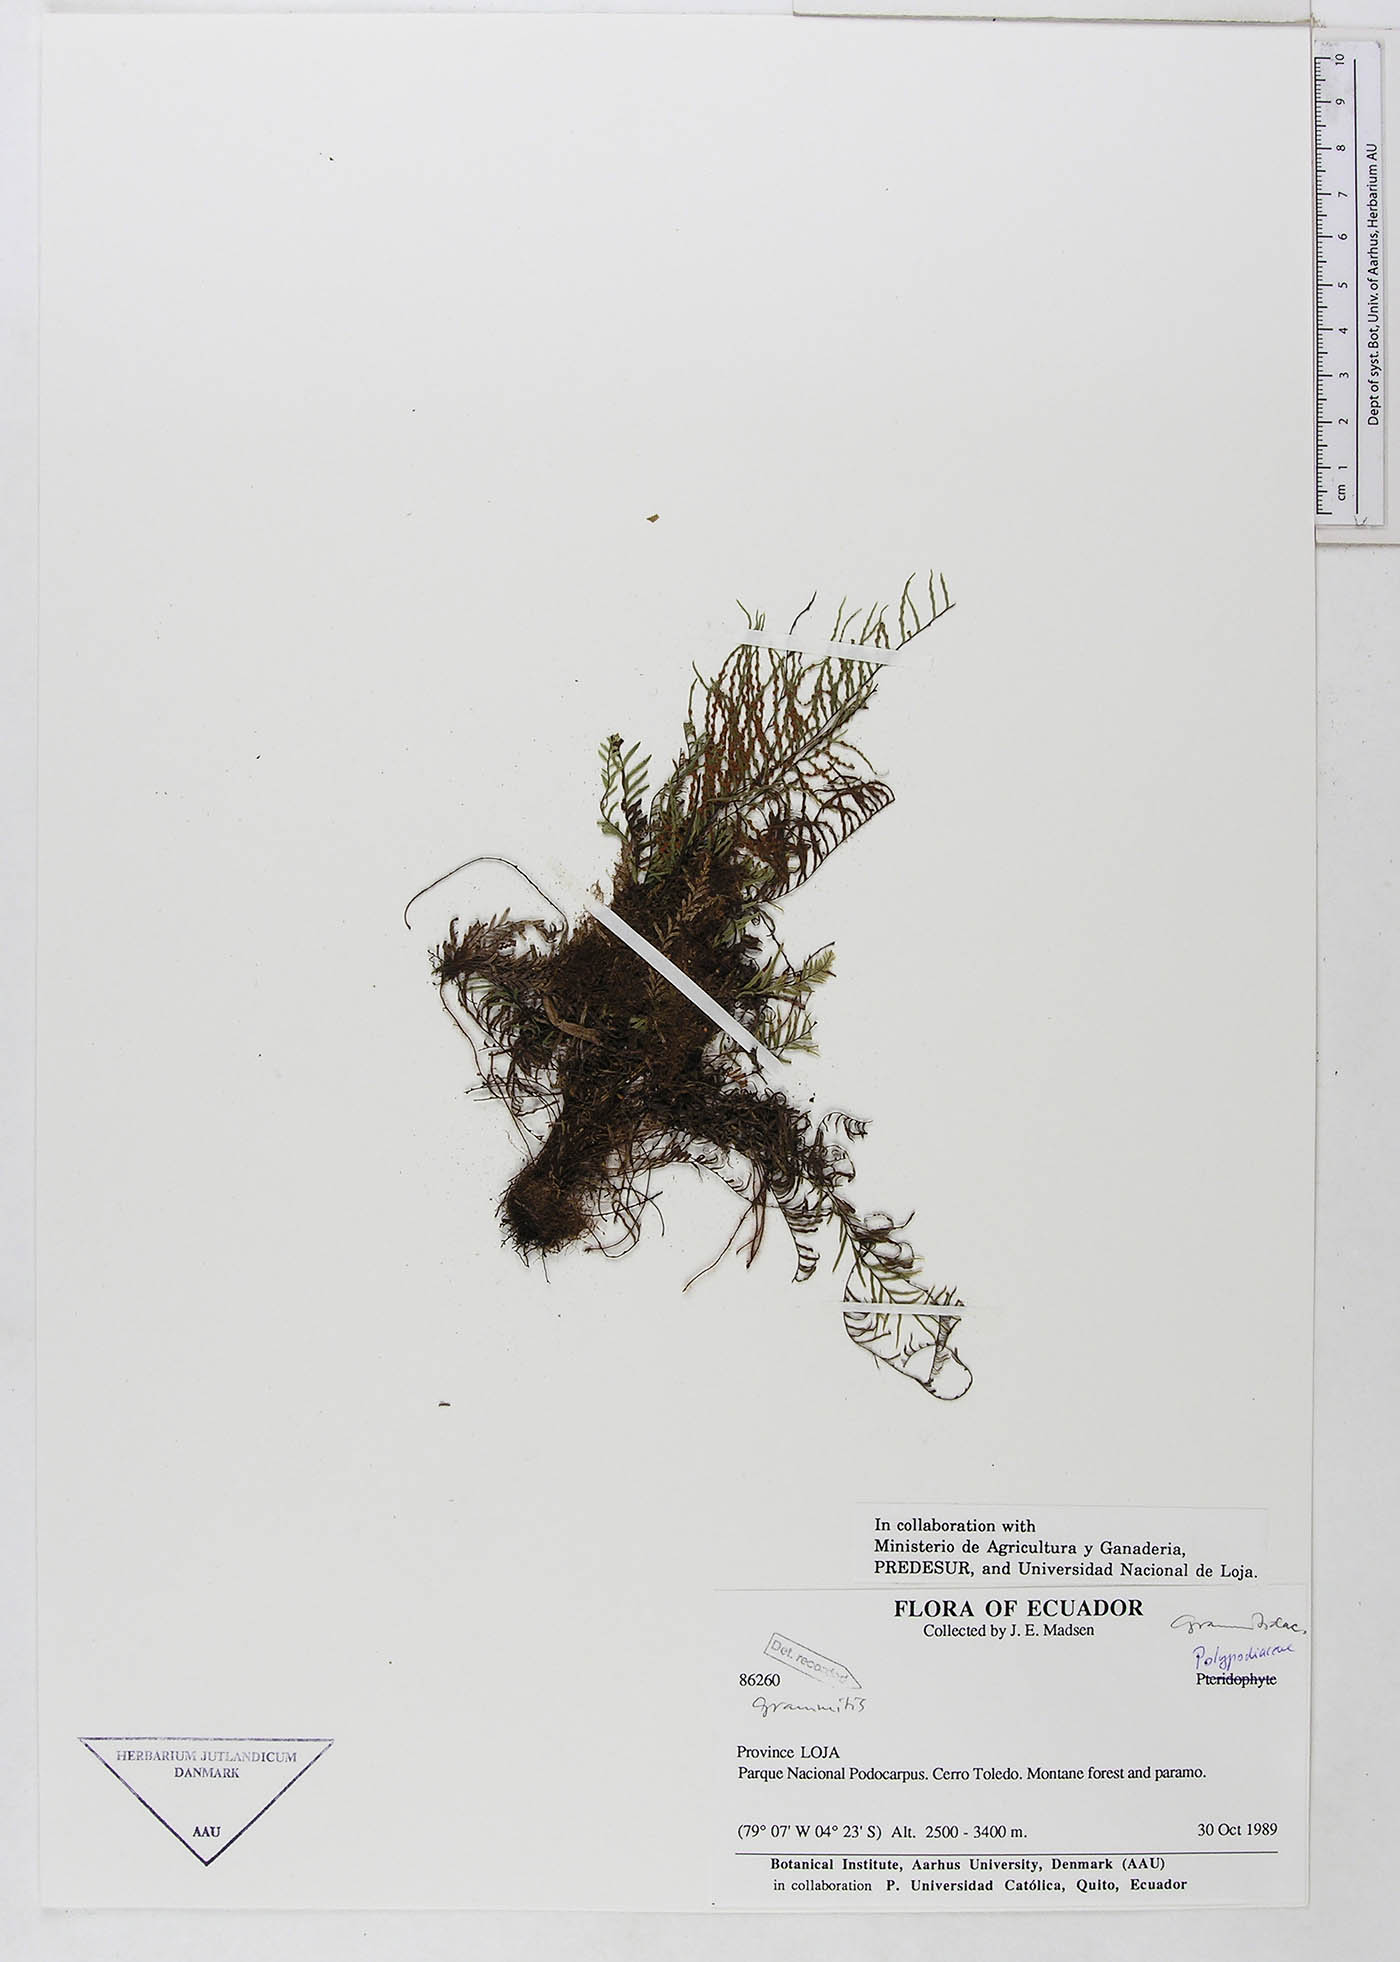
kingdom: Plantae
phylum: Tracheophyta
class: Polypodiopsida
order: Polypodiales
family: Polypodiaceae
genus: Ceradenia
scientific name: Ceradenia
